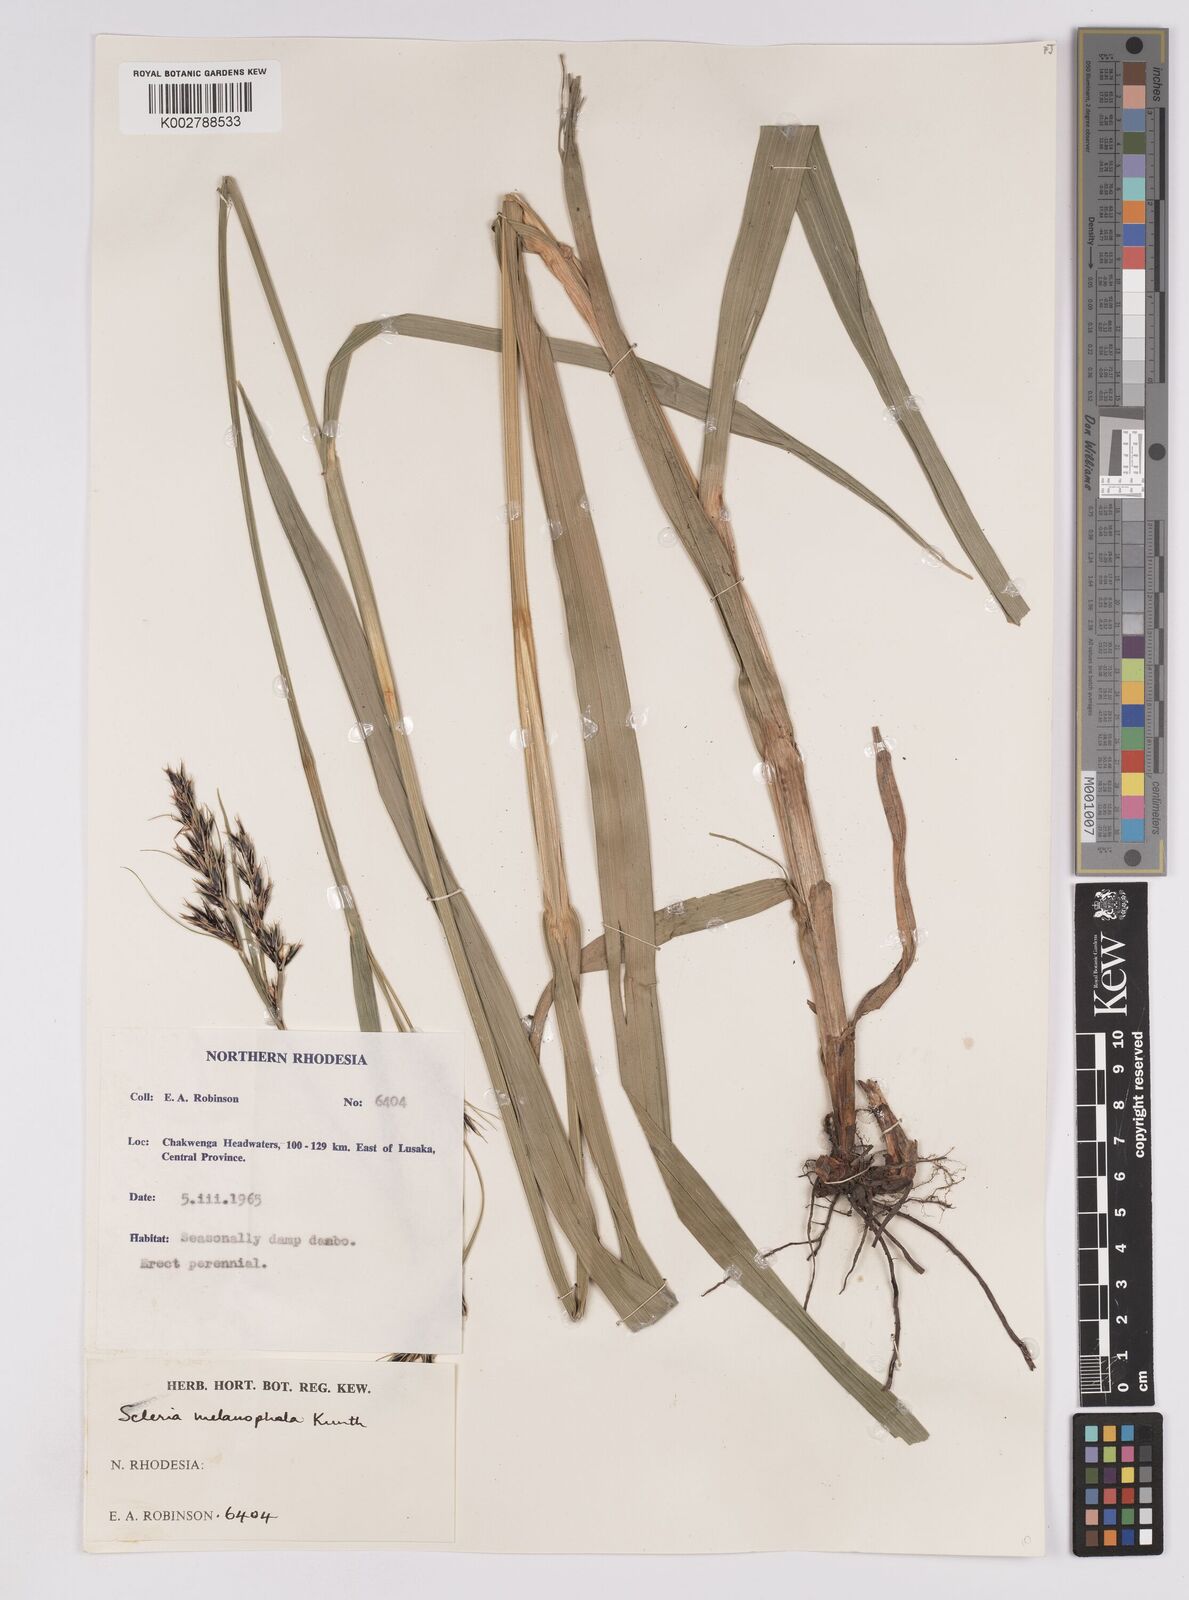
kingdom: Plantae
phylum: Tracheophyta
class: Liliopsida
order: Poales
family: Cyperaceae
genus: Scleria
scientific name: Scleria melanomphala
